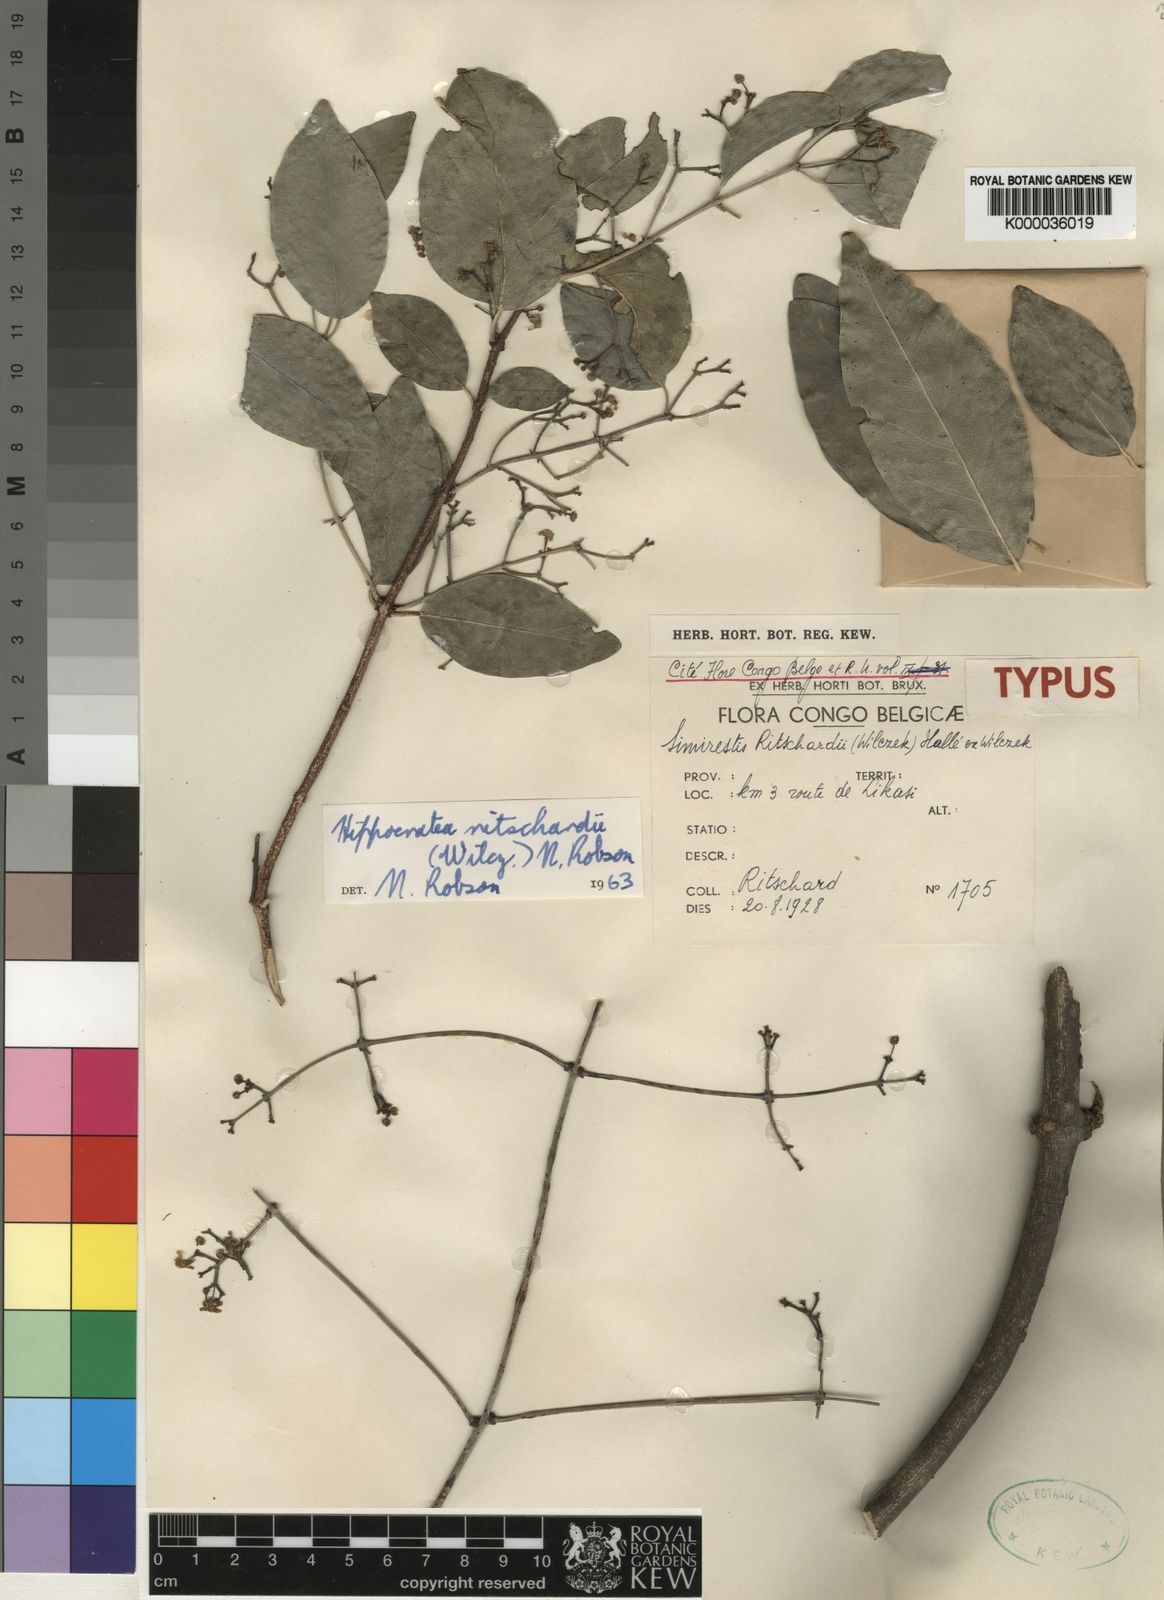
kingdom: Plantae
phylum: Tracheophyta
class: Magnoliopsida
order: Celastrales
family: Celastraceae
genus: Prionostemma
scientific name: Prionostemma
